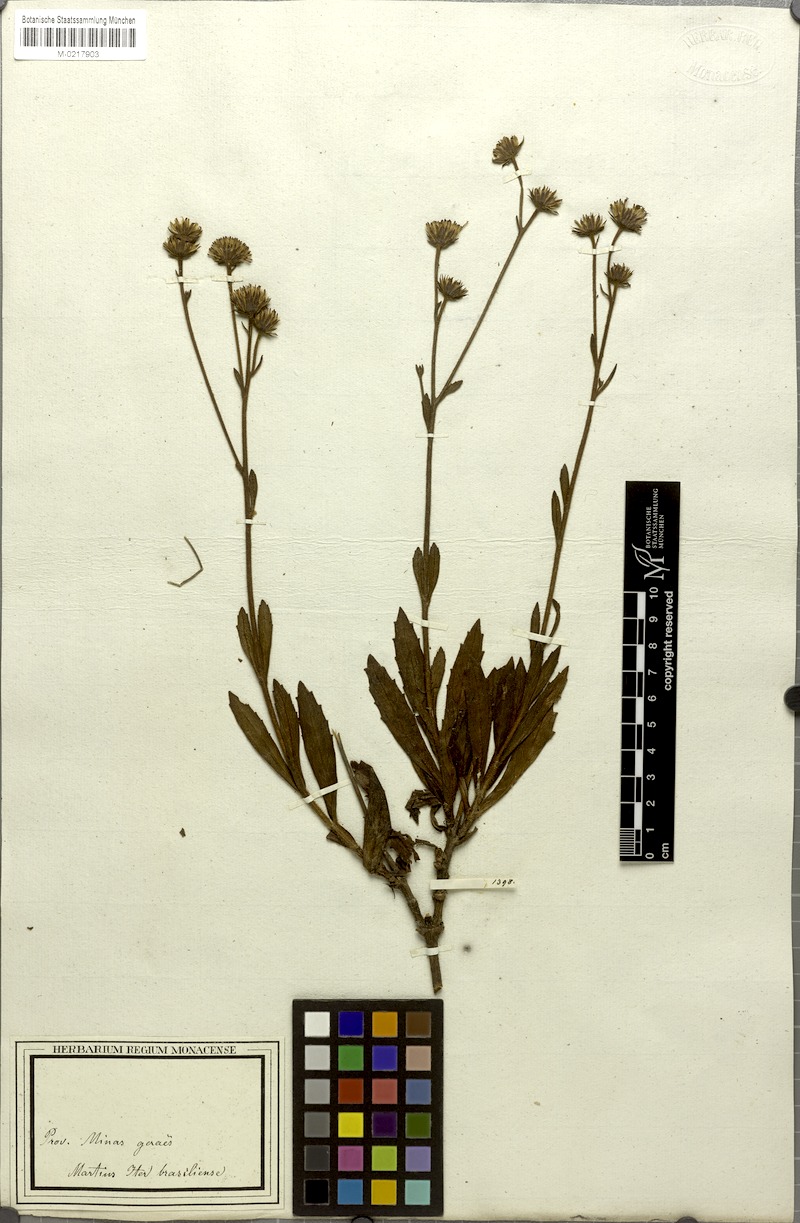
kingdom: Plantae
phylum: Tracheophyta
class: Magnoliopsida
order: Asterales
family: Asteraceae
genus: Heterocondylus
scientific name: Heterocondylus amphidictyus
